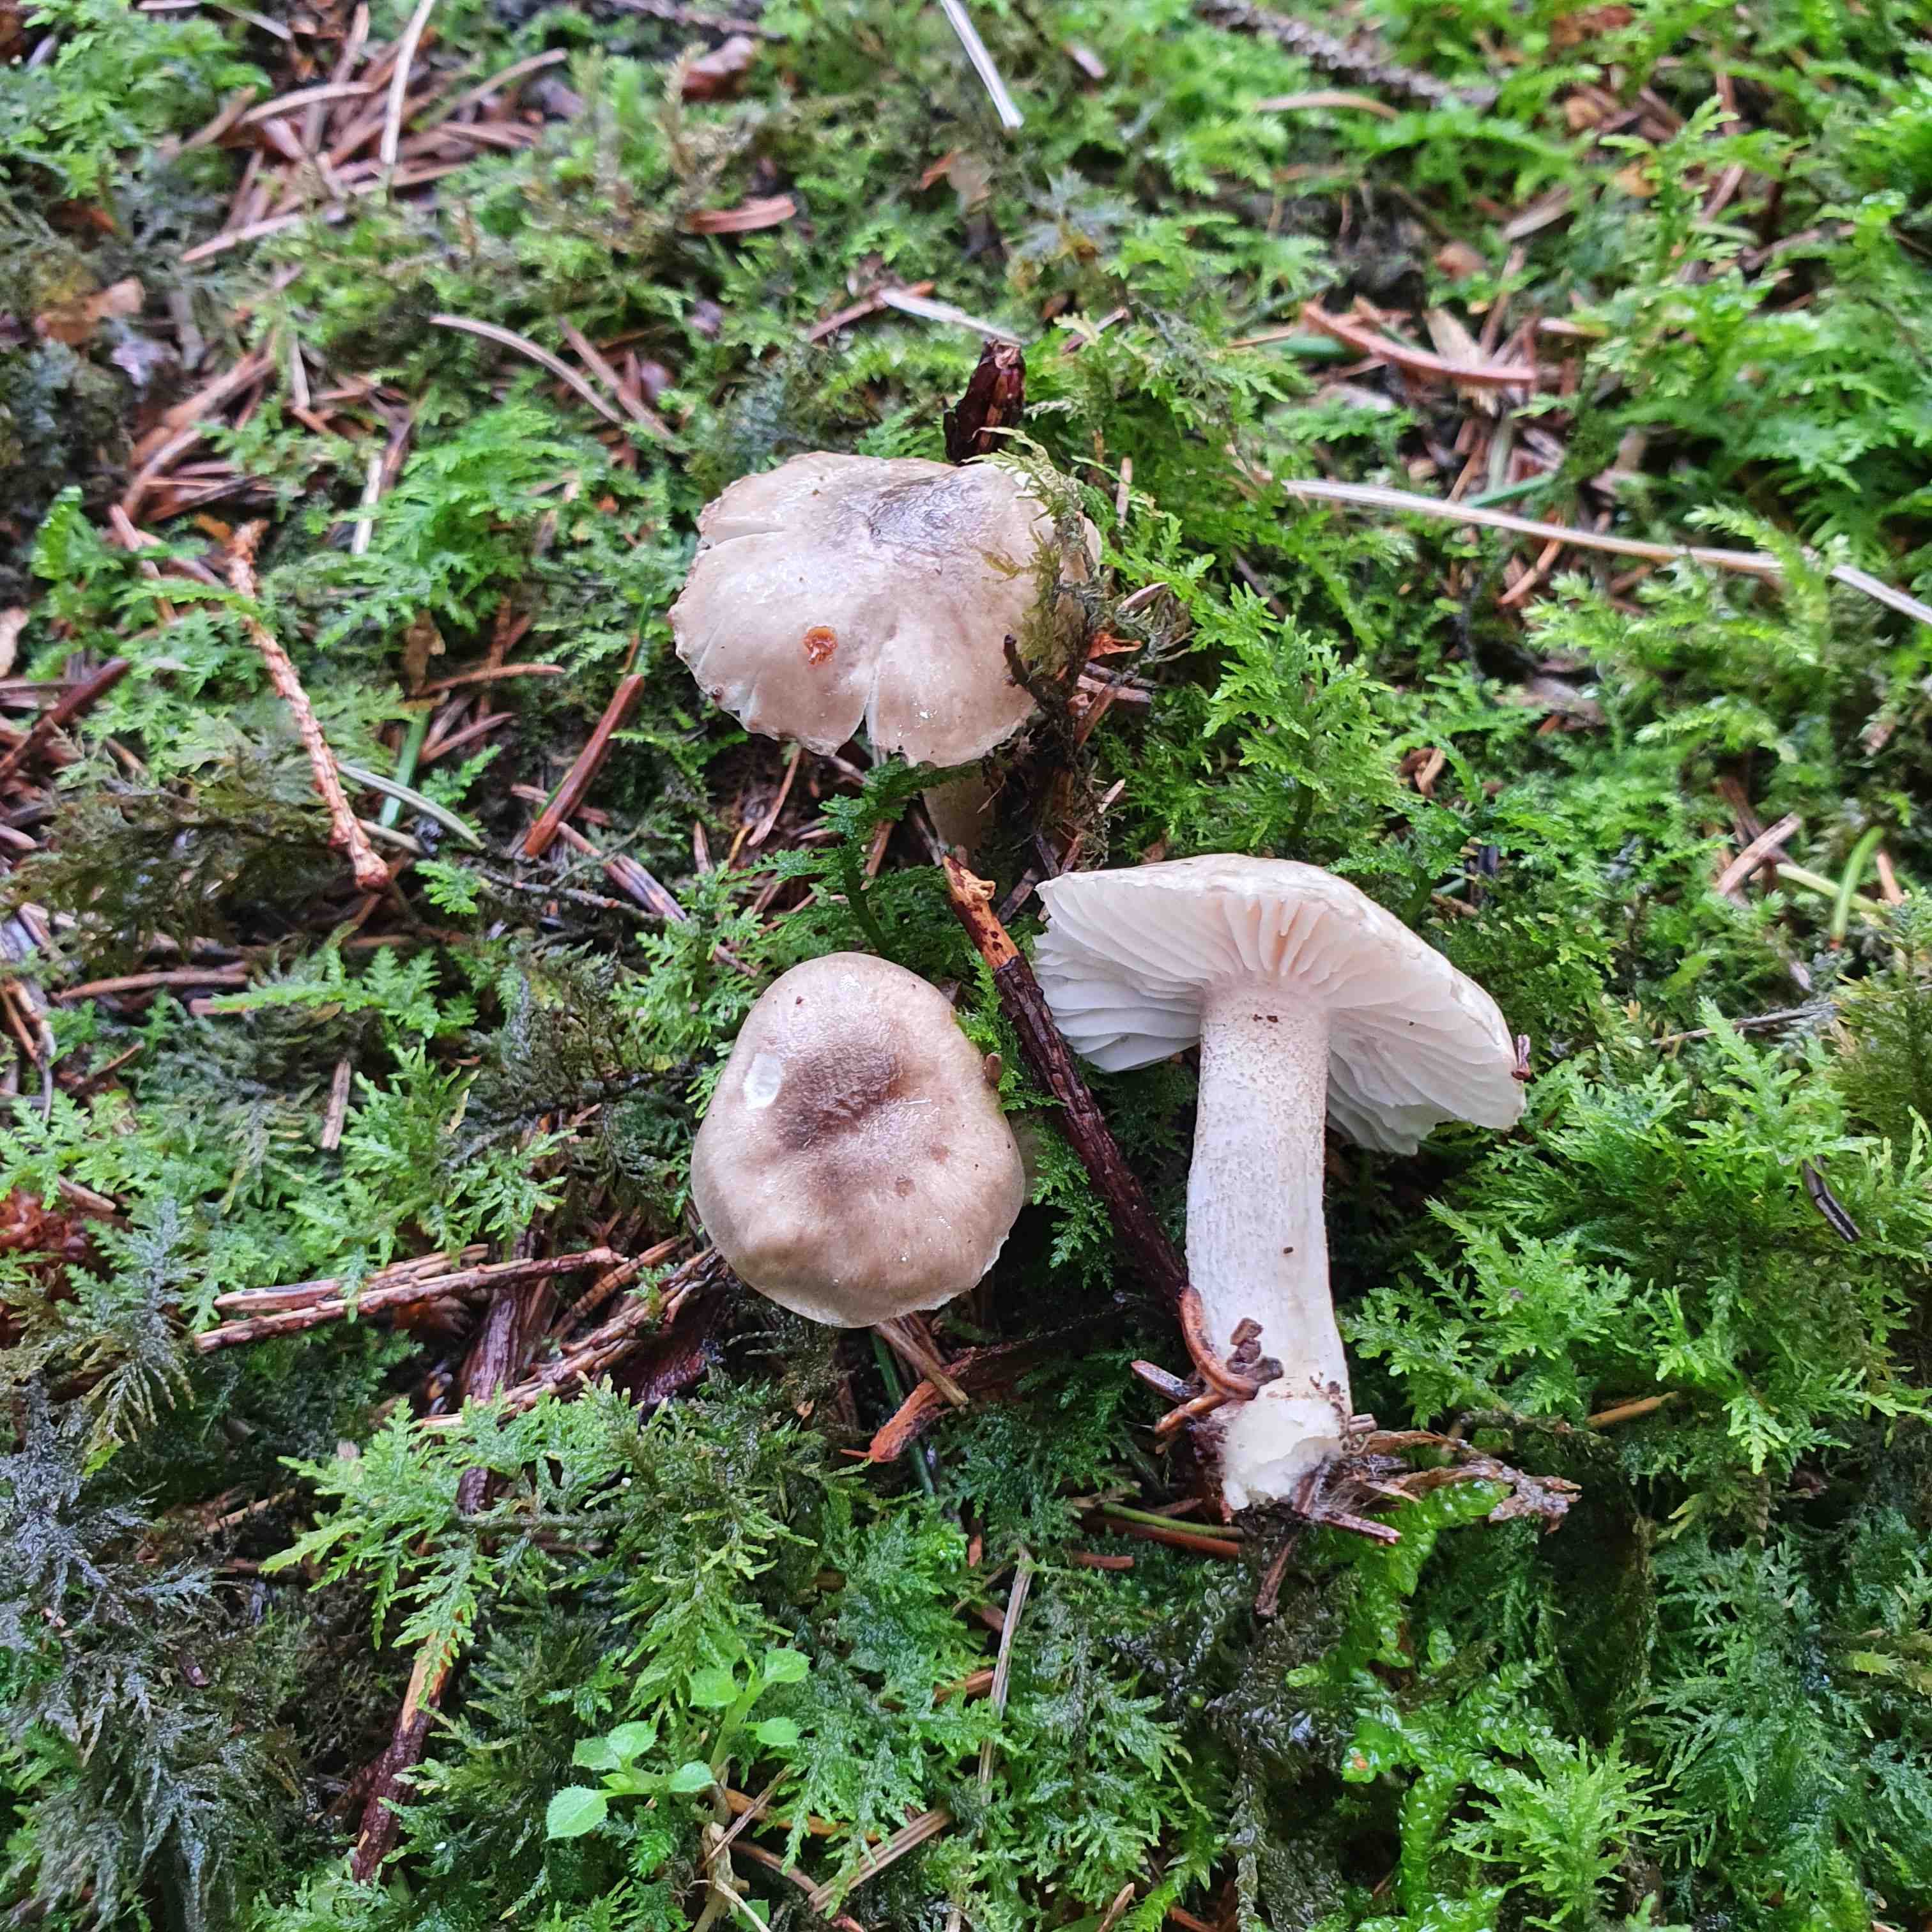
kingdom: Fungi
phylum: Basidiomycota
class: Agaricomycetes
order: Agaricales
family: Hygrophoraceae
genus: Hygrophorus
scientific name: Hygrophorus pustulatus
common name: mørkprikket sneglehat
